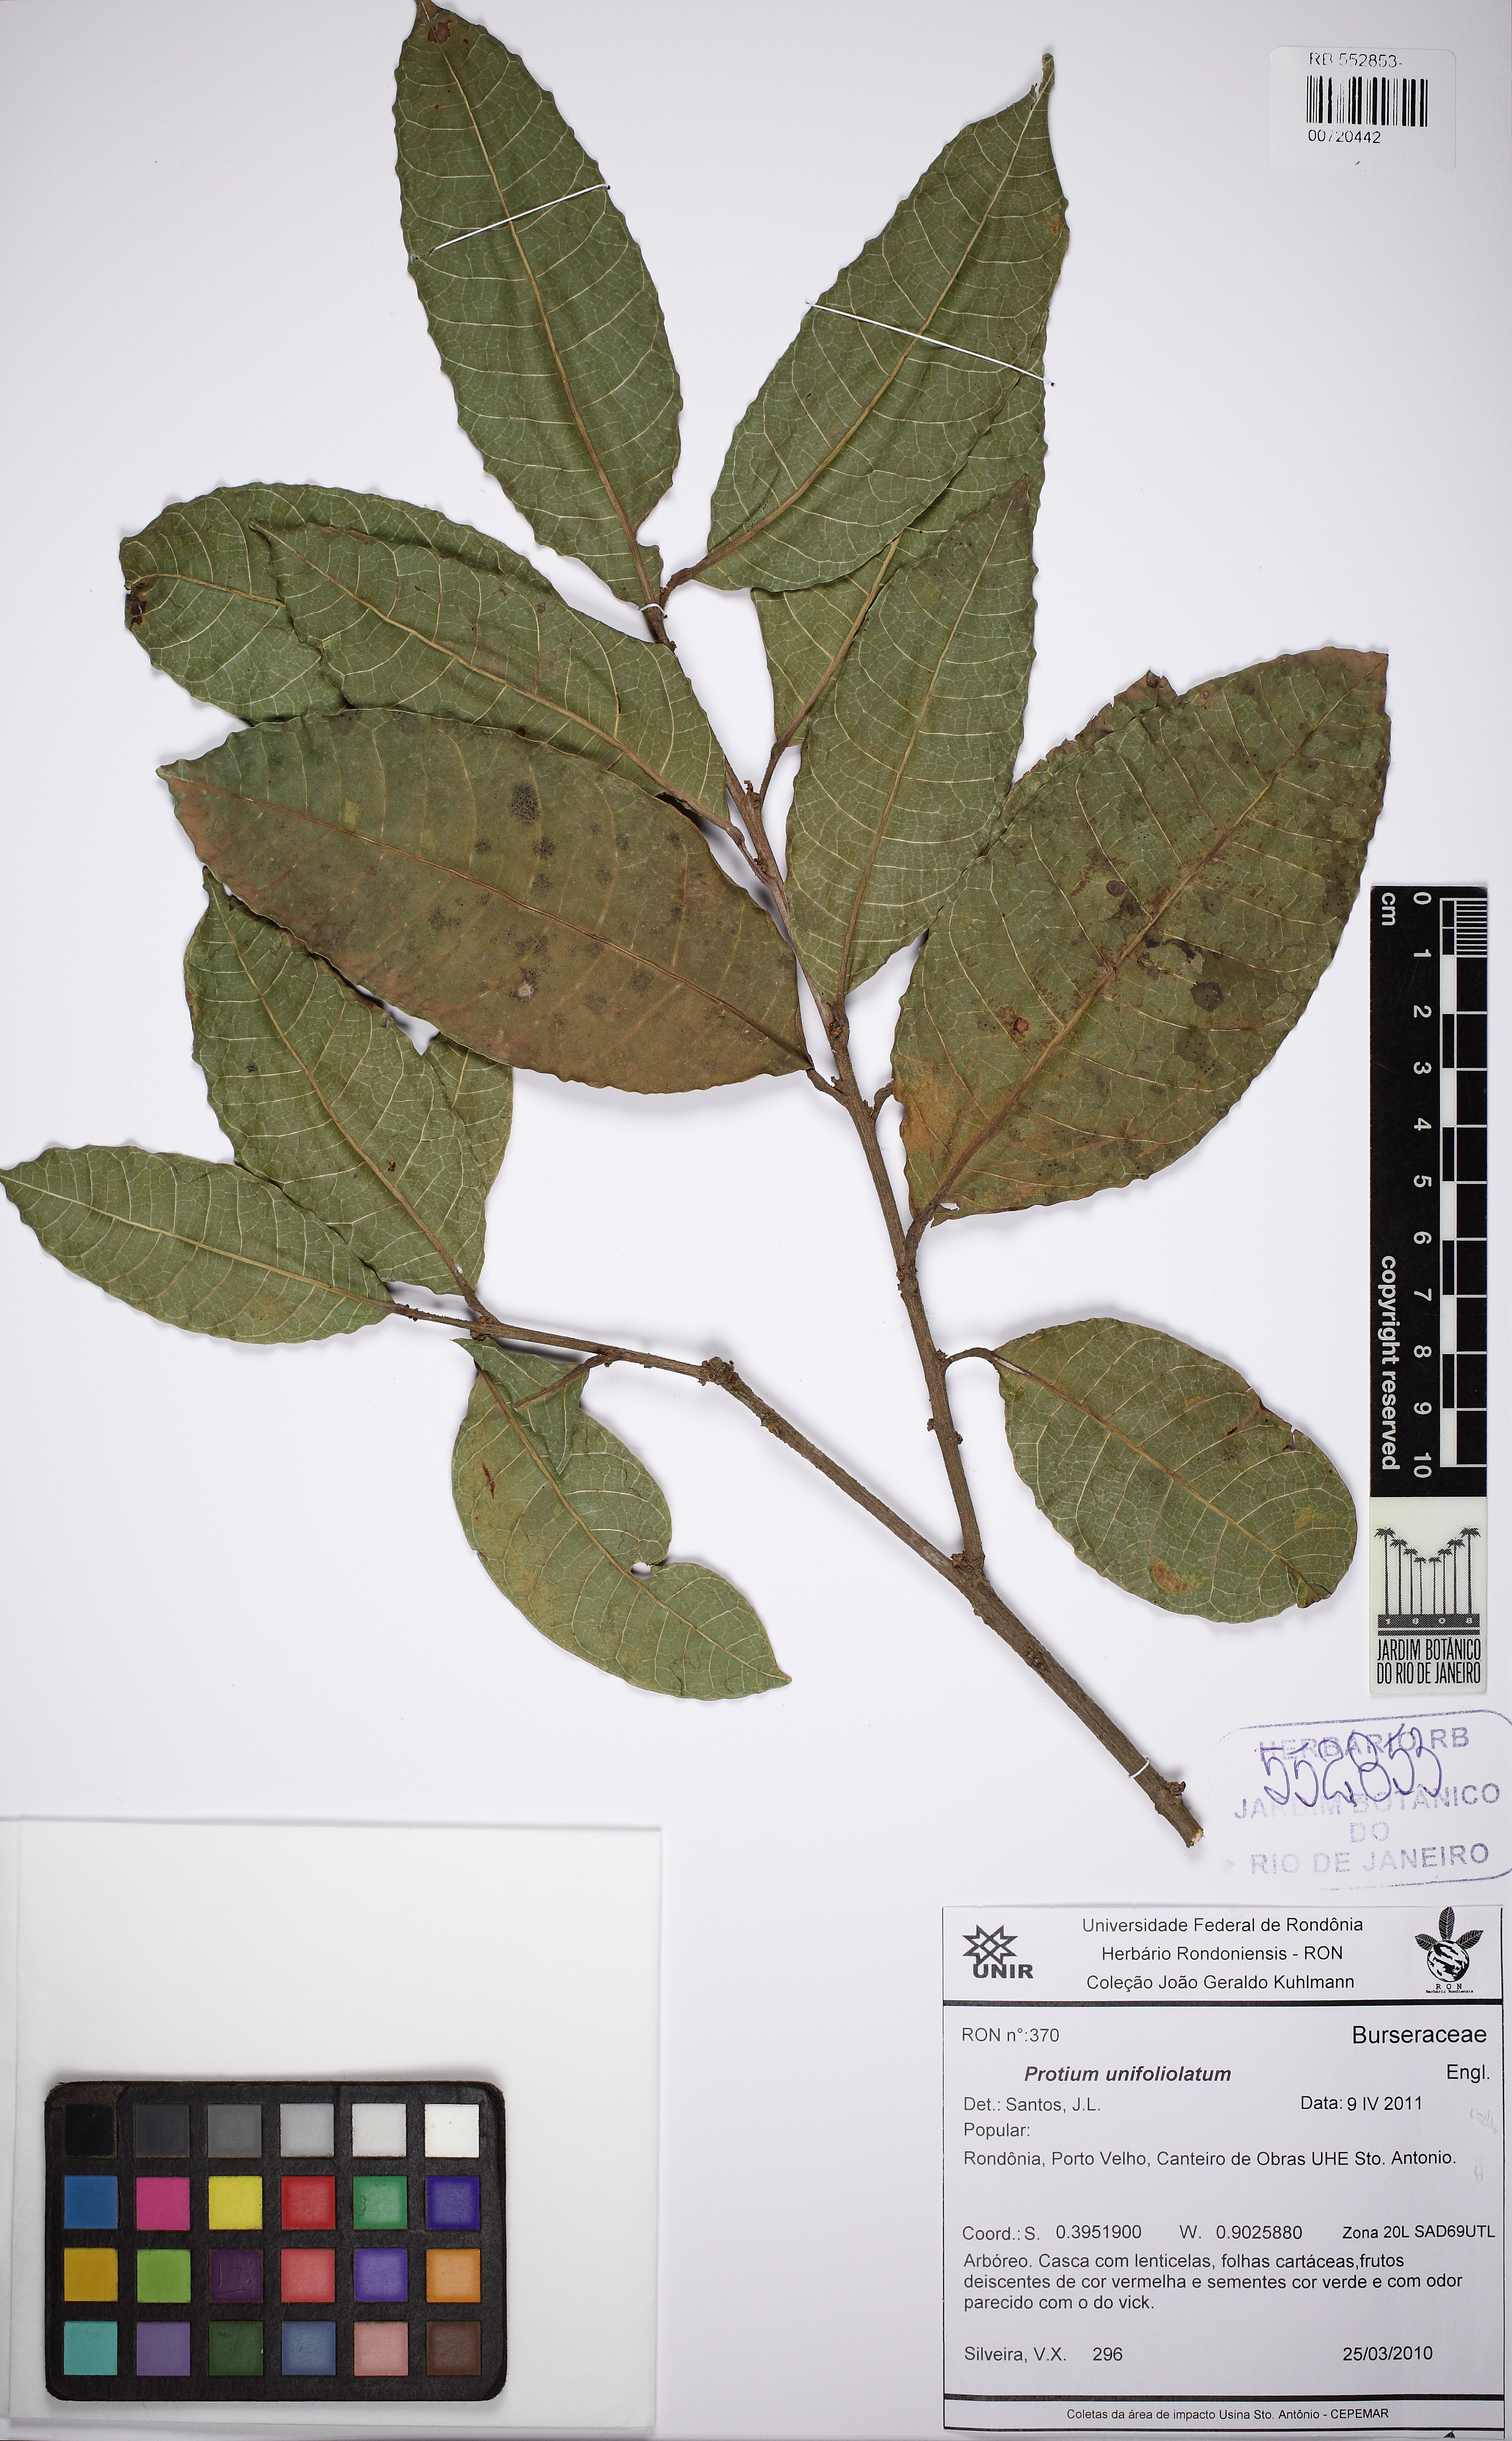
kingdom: Plantae
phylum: Tracheophyta
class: Magnoliopsida
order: Sapindales
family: Burseraceae
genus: Protium
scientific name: Protium unifoliolatum
